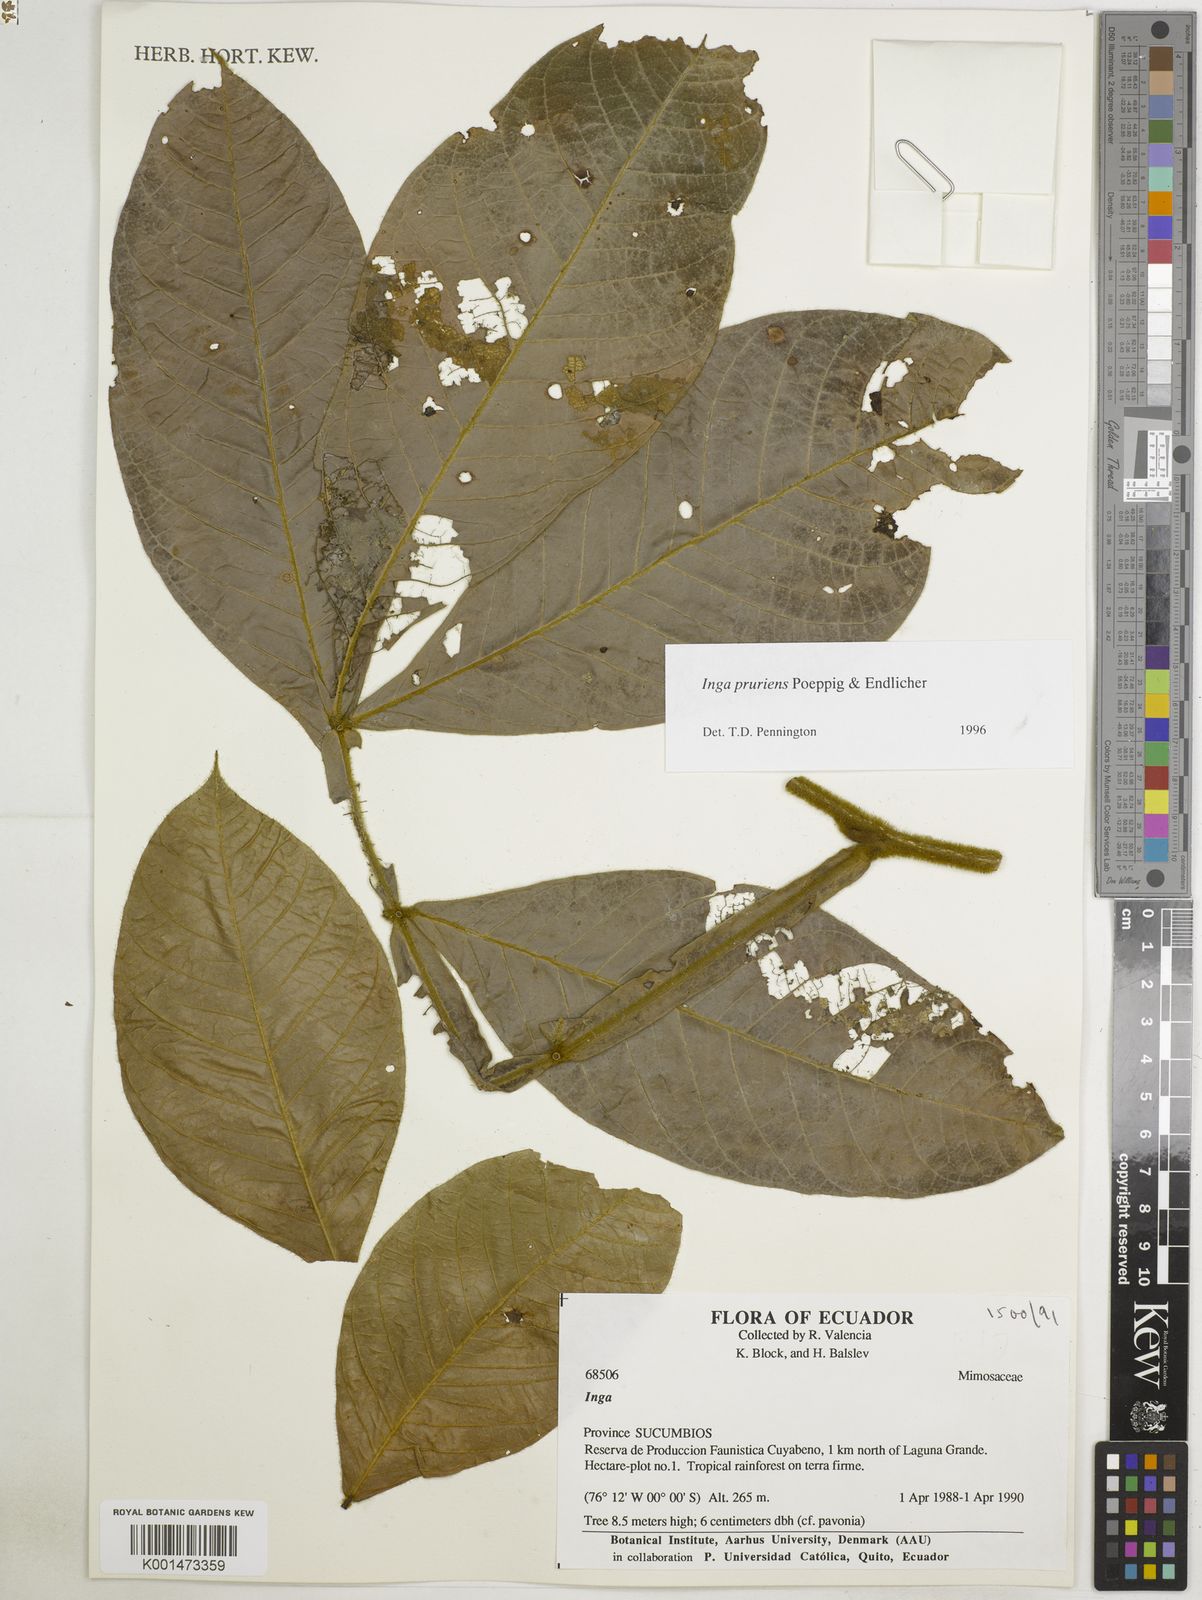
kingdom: Plantae
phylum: Tracheophyta
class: Magnoliopsida
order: Fabales
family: Fabaceae
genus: Inga
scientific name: Inga pruriens
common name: Howler monkey inga
